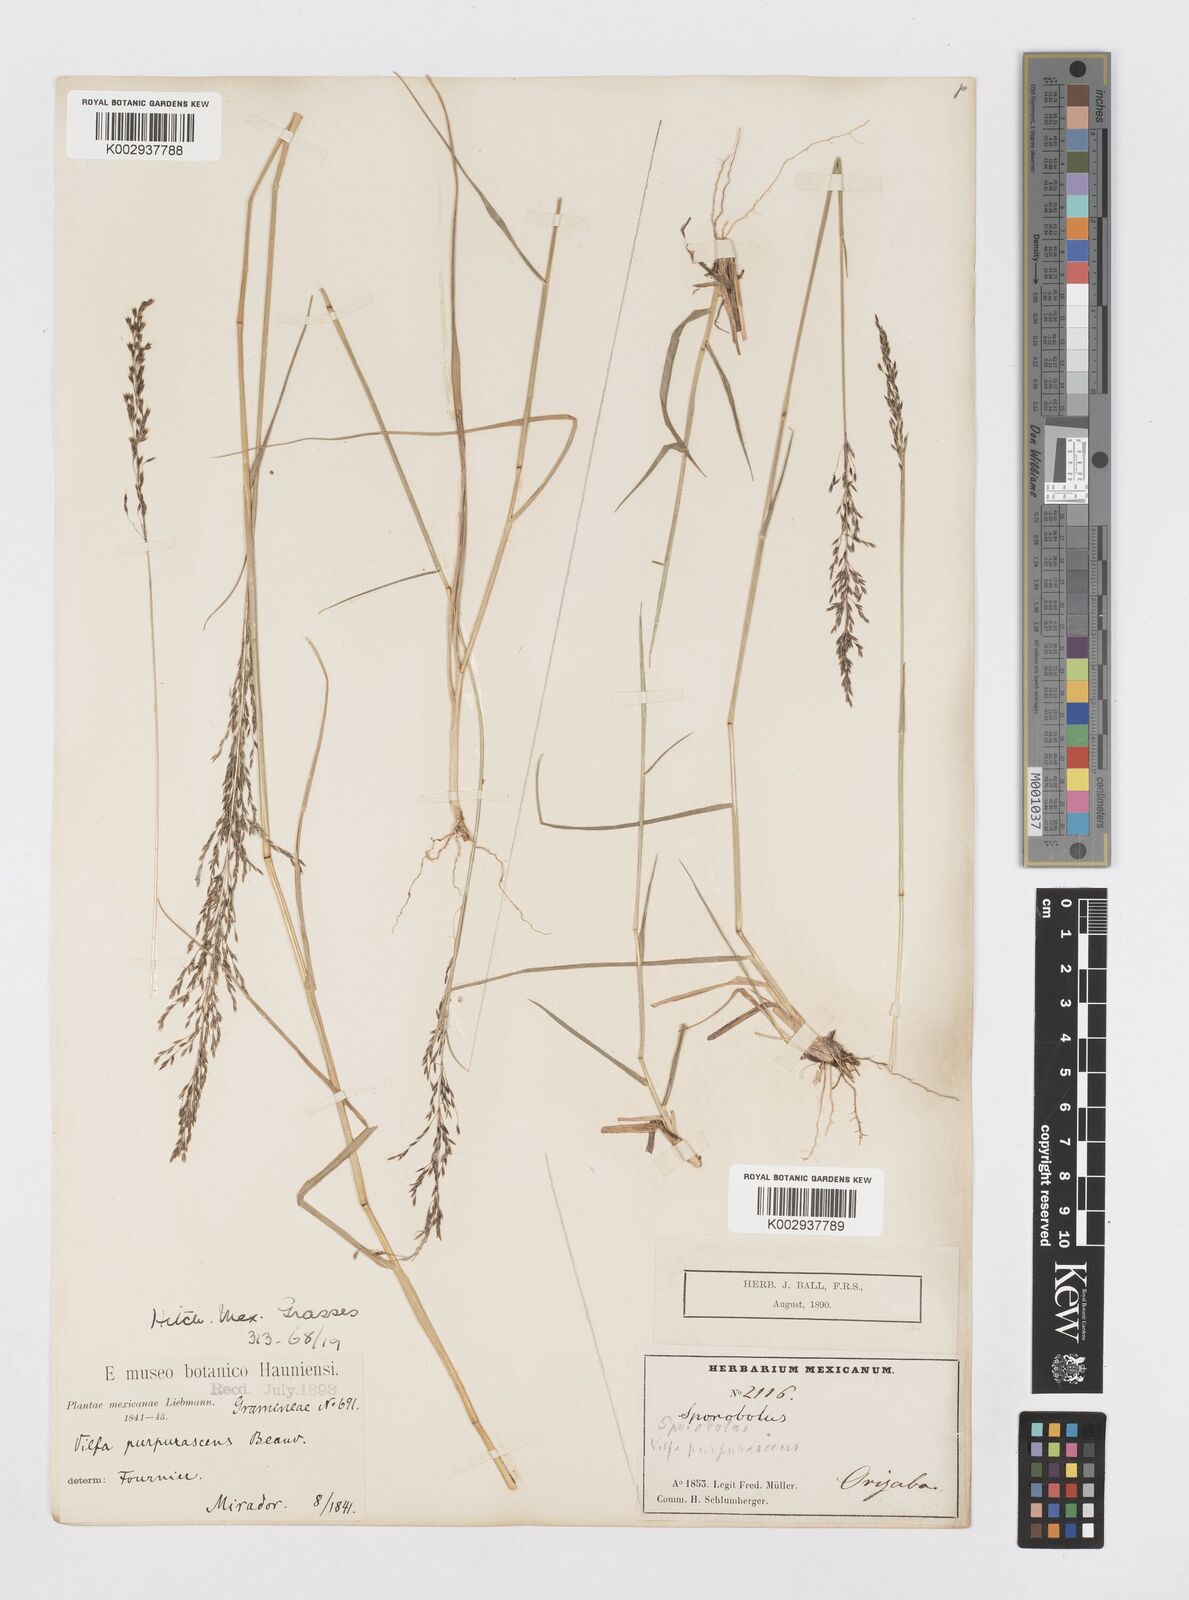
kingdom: Plantae
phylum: Tracheophyta
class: Liliopsida
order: Poales
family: Poaceae
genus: Sporobolus
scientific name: Sporobolus purpurascens
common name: Purple dropseed
